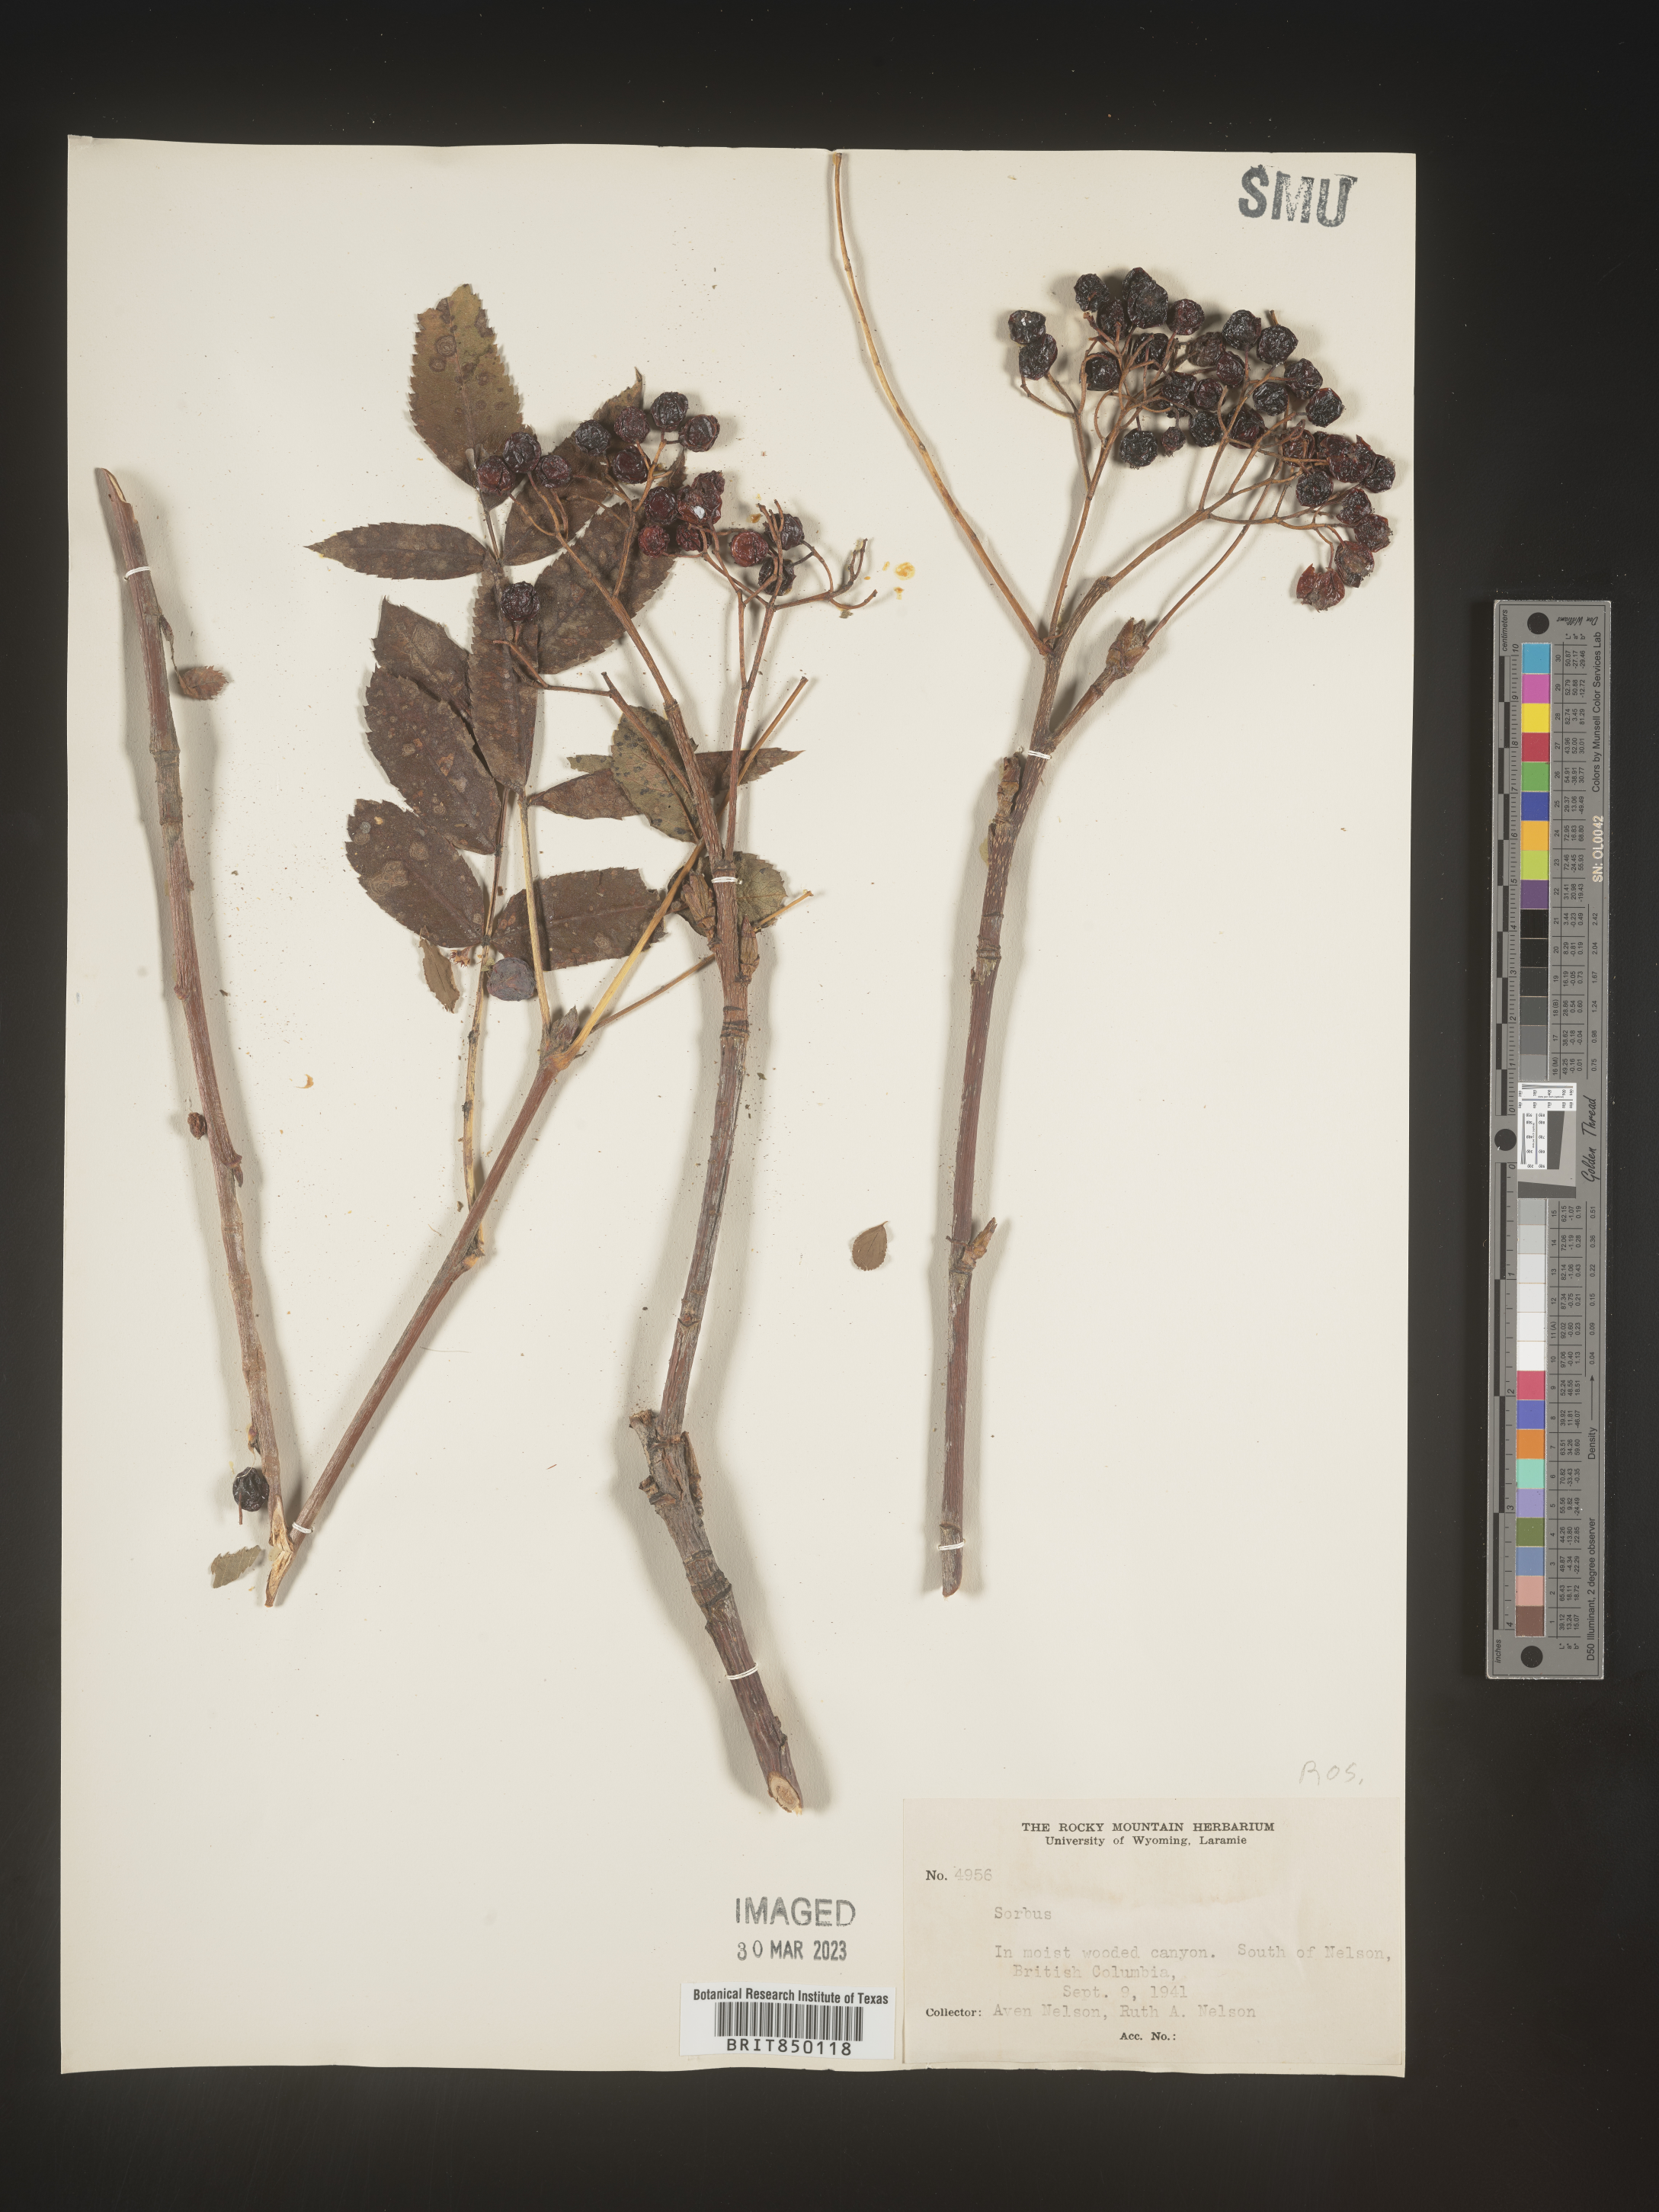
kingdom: Plantae
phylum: Tracheophyta
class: Magnoliopsida
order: Rosales
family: Rosaceae
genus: Sorbus
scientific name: Sorbus
